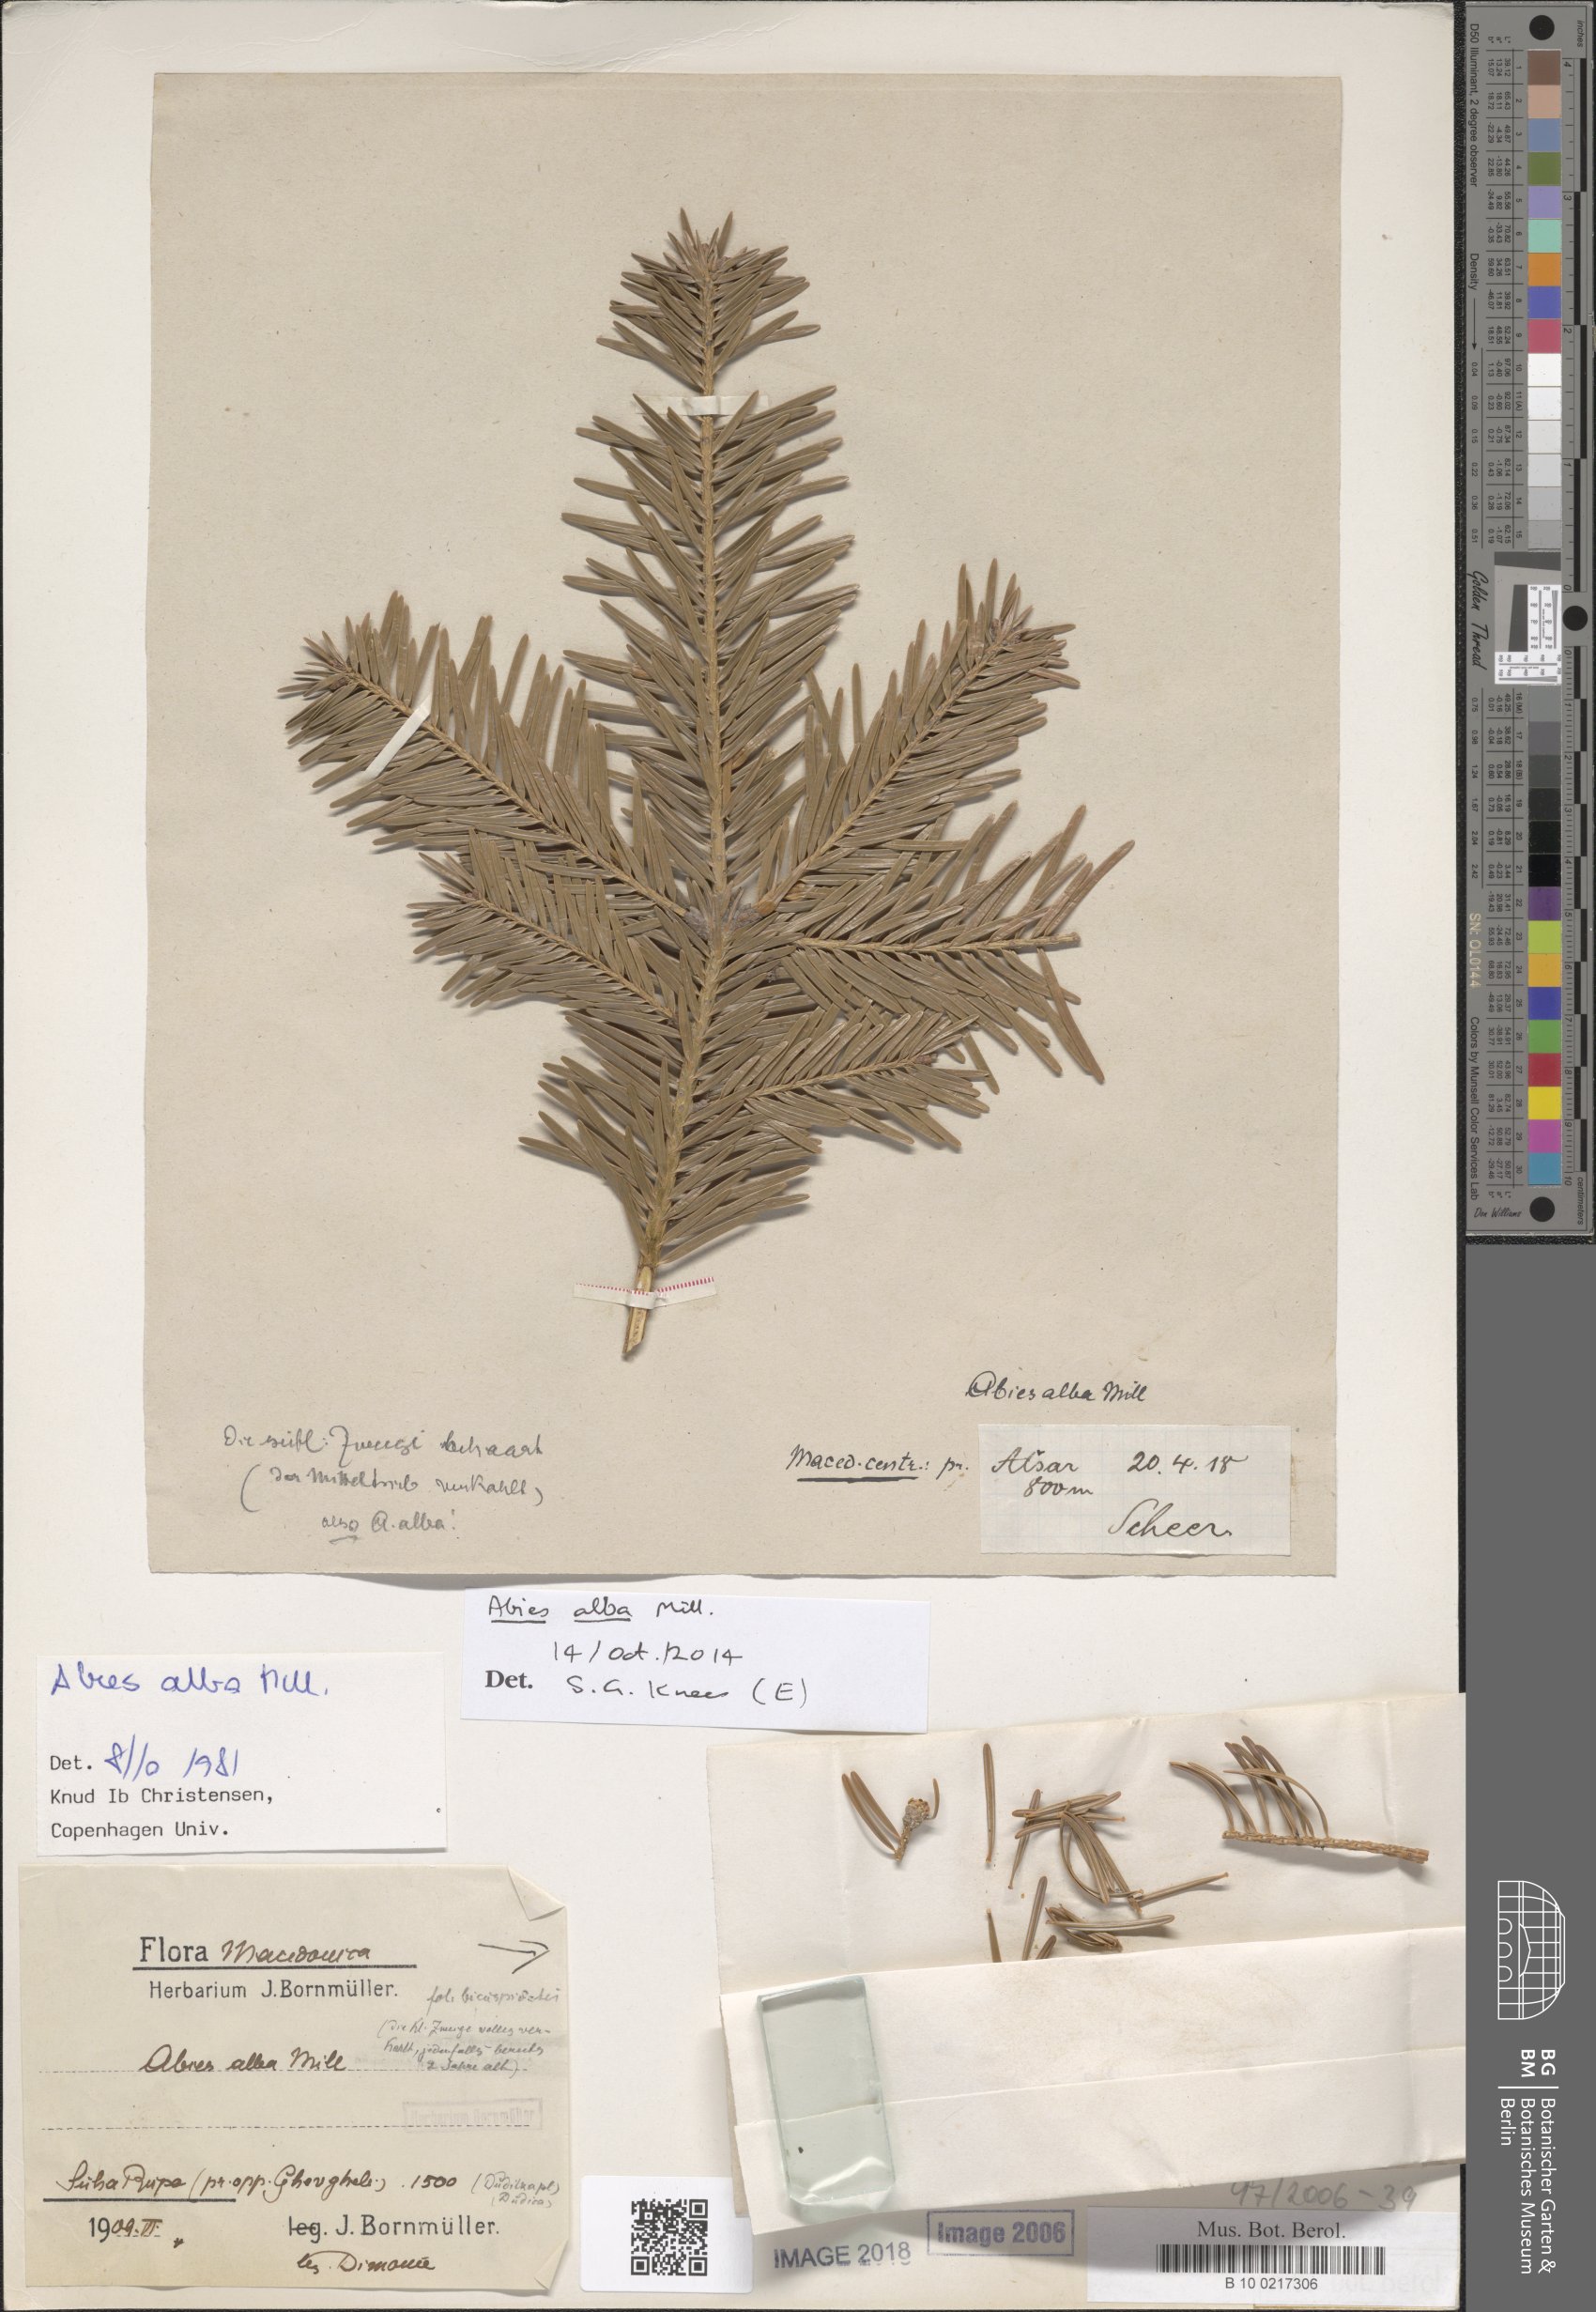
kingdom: Plantae
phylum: Tracheophyta
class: Pinopsida
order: Pinales
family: Pinaceae
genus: Abies
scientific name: Abies alba
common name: Silver fir
